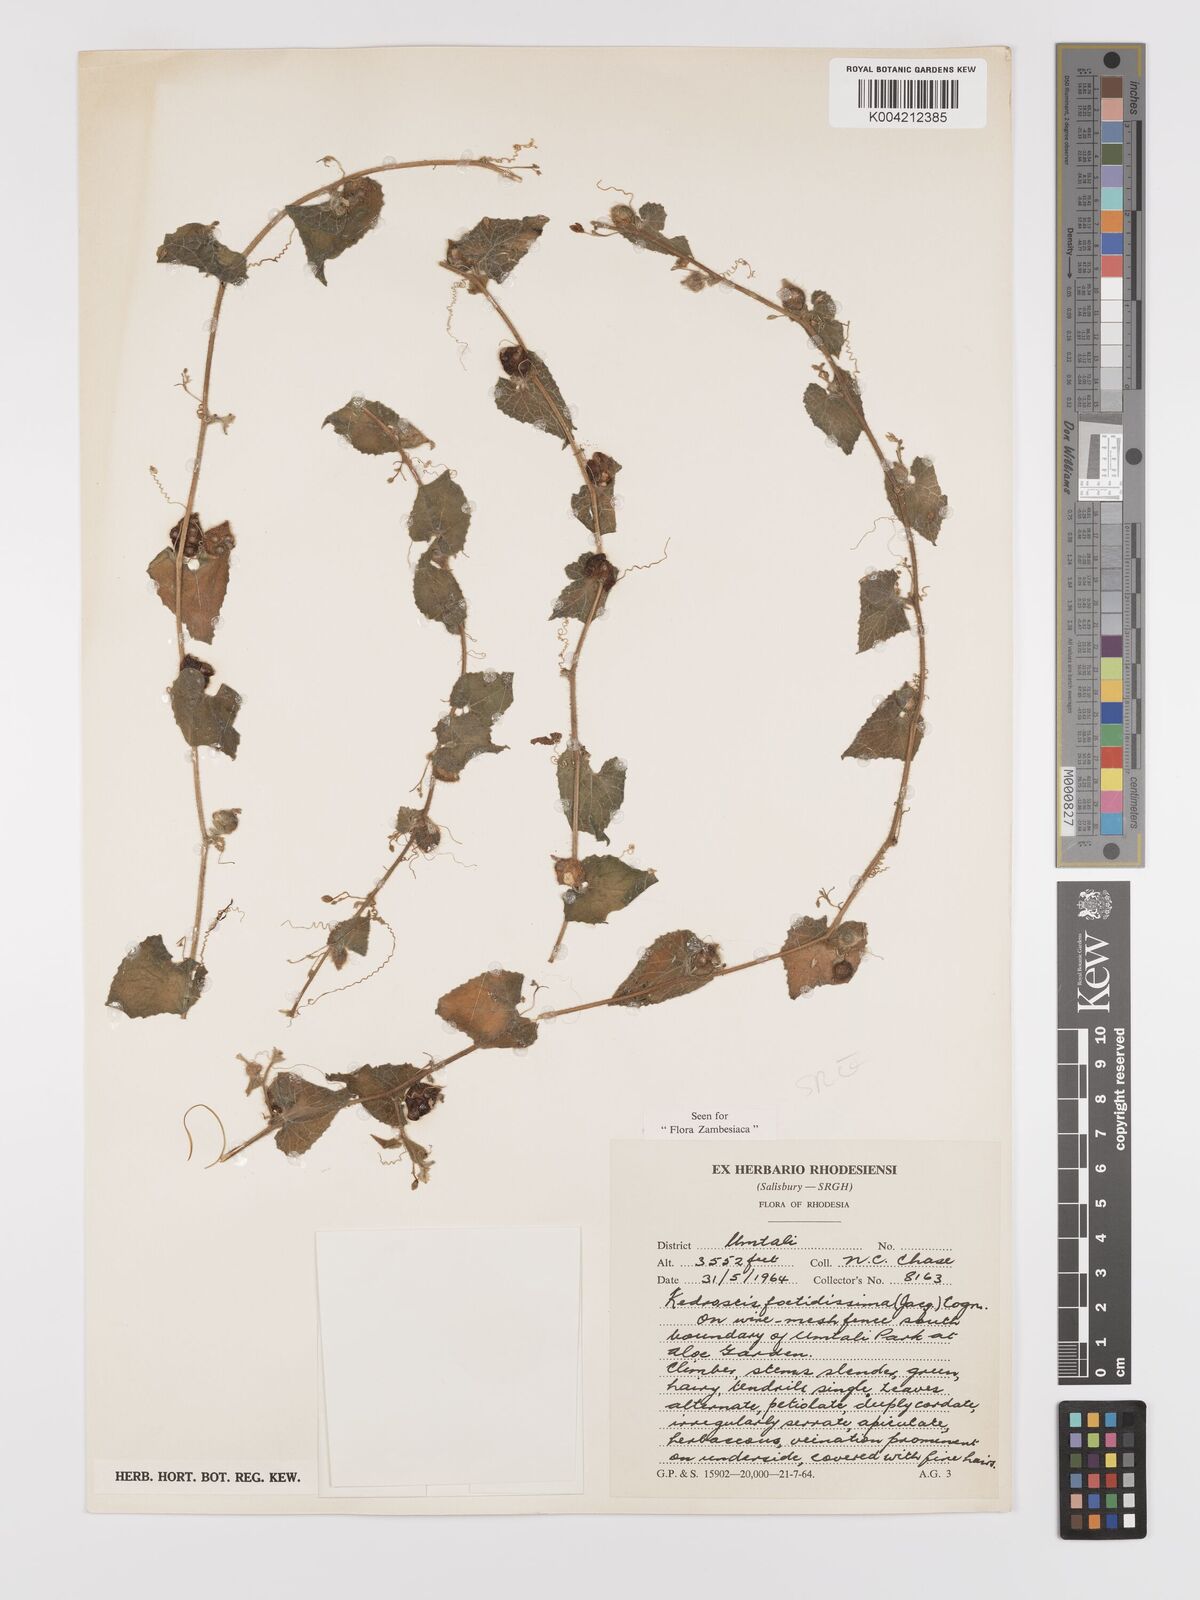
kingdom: Plantae
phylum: Tracheophyta
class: Magnoliopsida
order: Cucurbitales
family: Cucurbitaceae
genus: Kedrostis
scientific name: Kedrostis foetidissima
